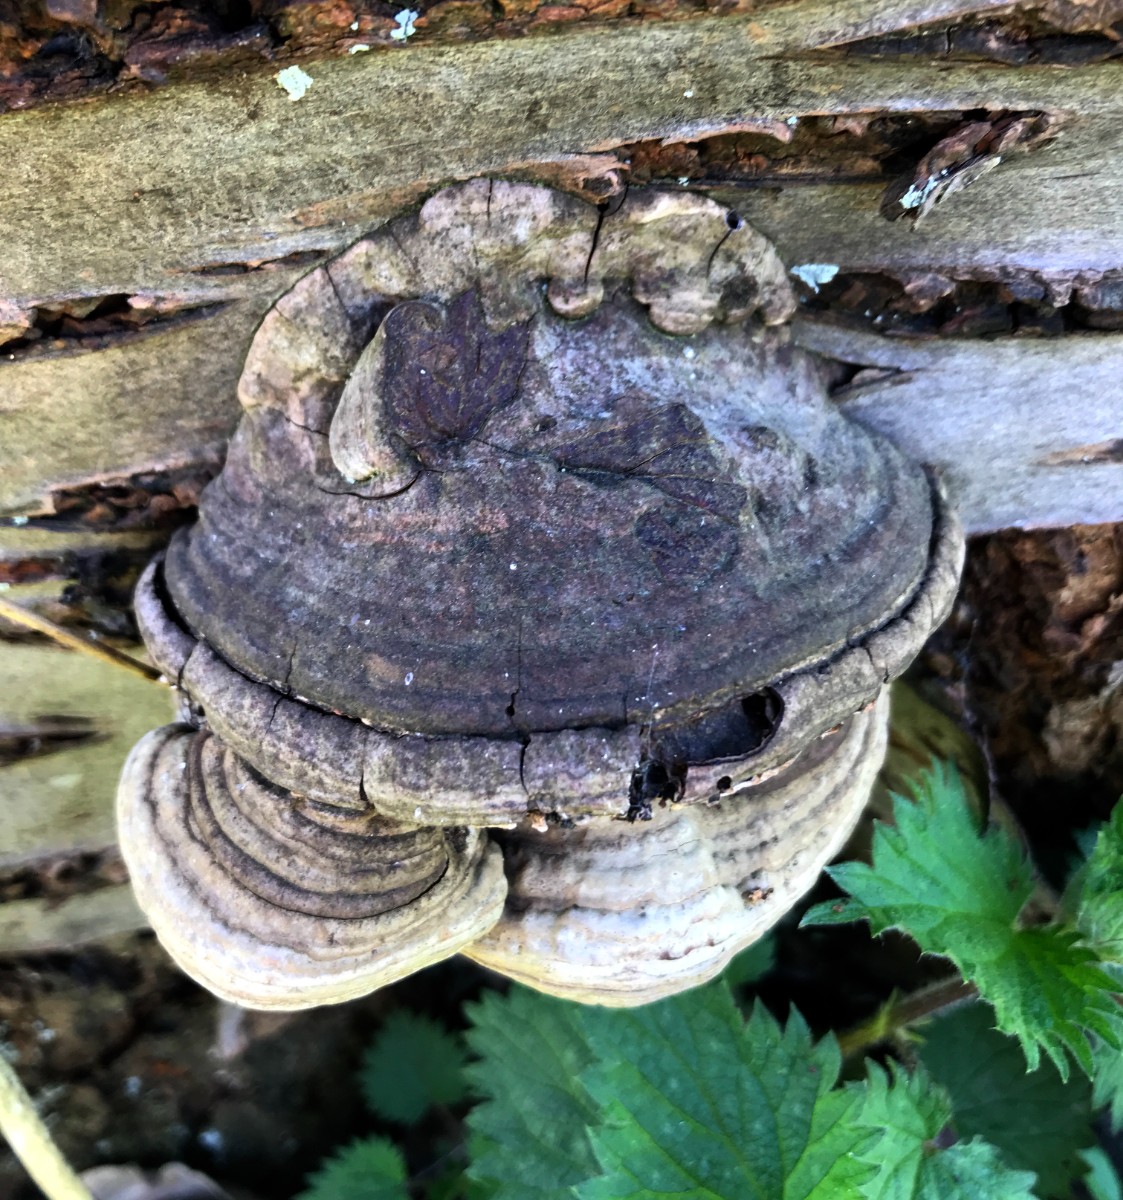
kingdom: Fungi
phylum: Basidiomycota
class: Agaricomycetes
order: Polyporales
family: Polyporaceae
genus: Ganoderma
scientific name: Ganoderma applanatum
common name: flad lakporesvamp
